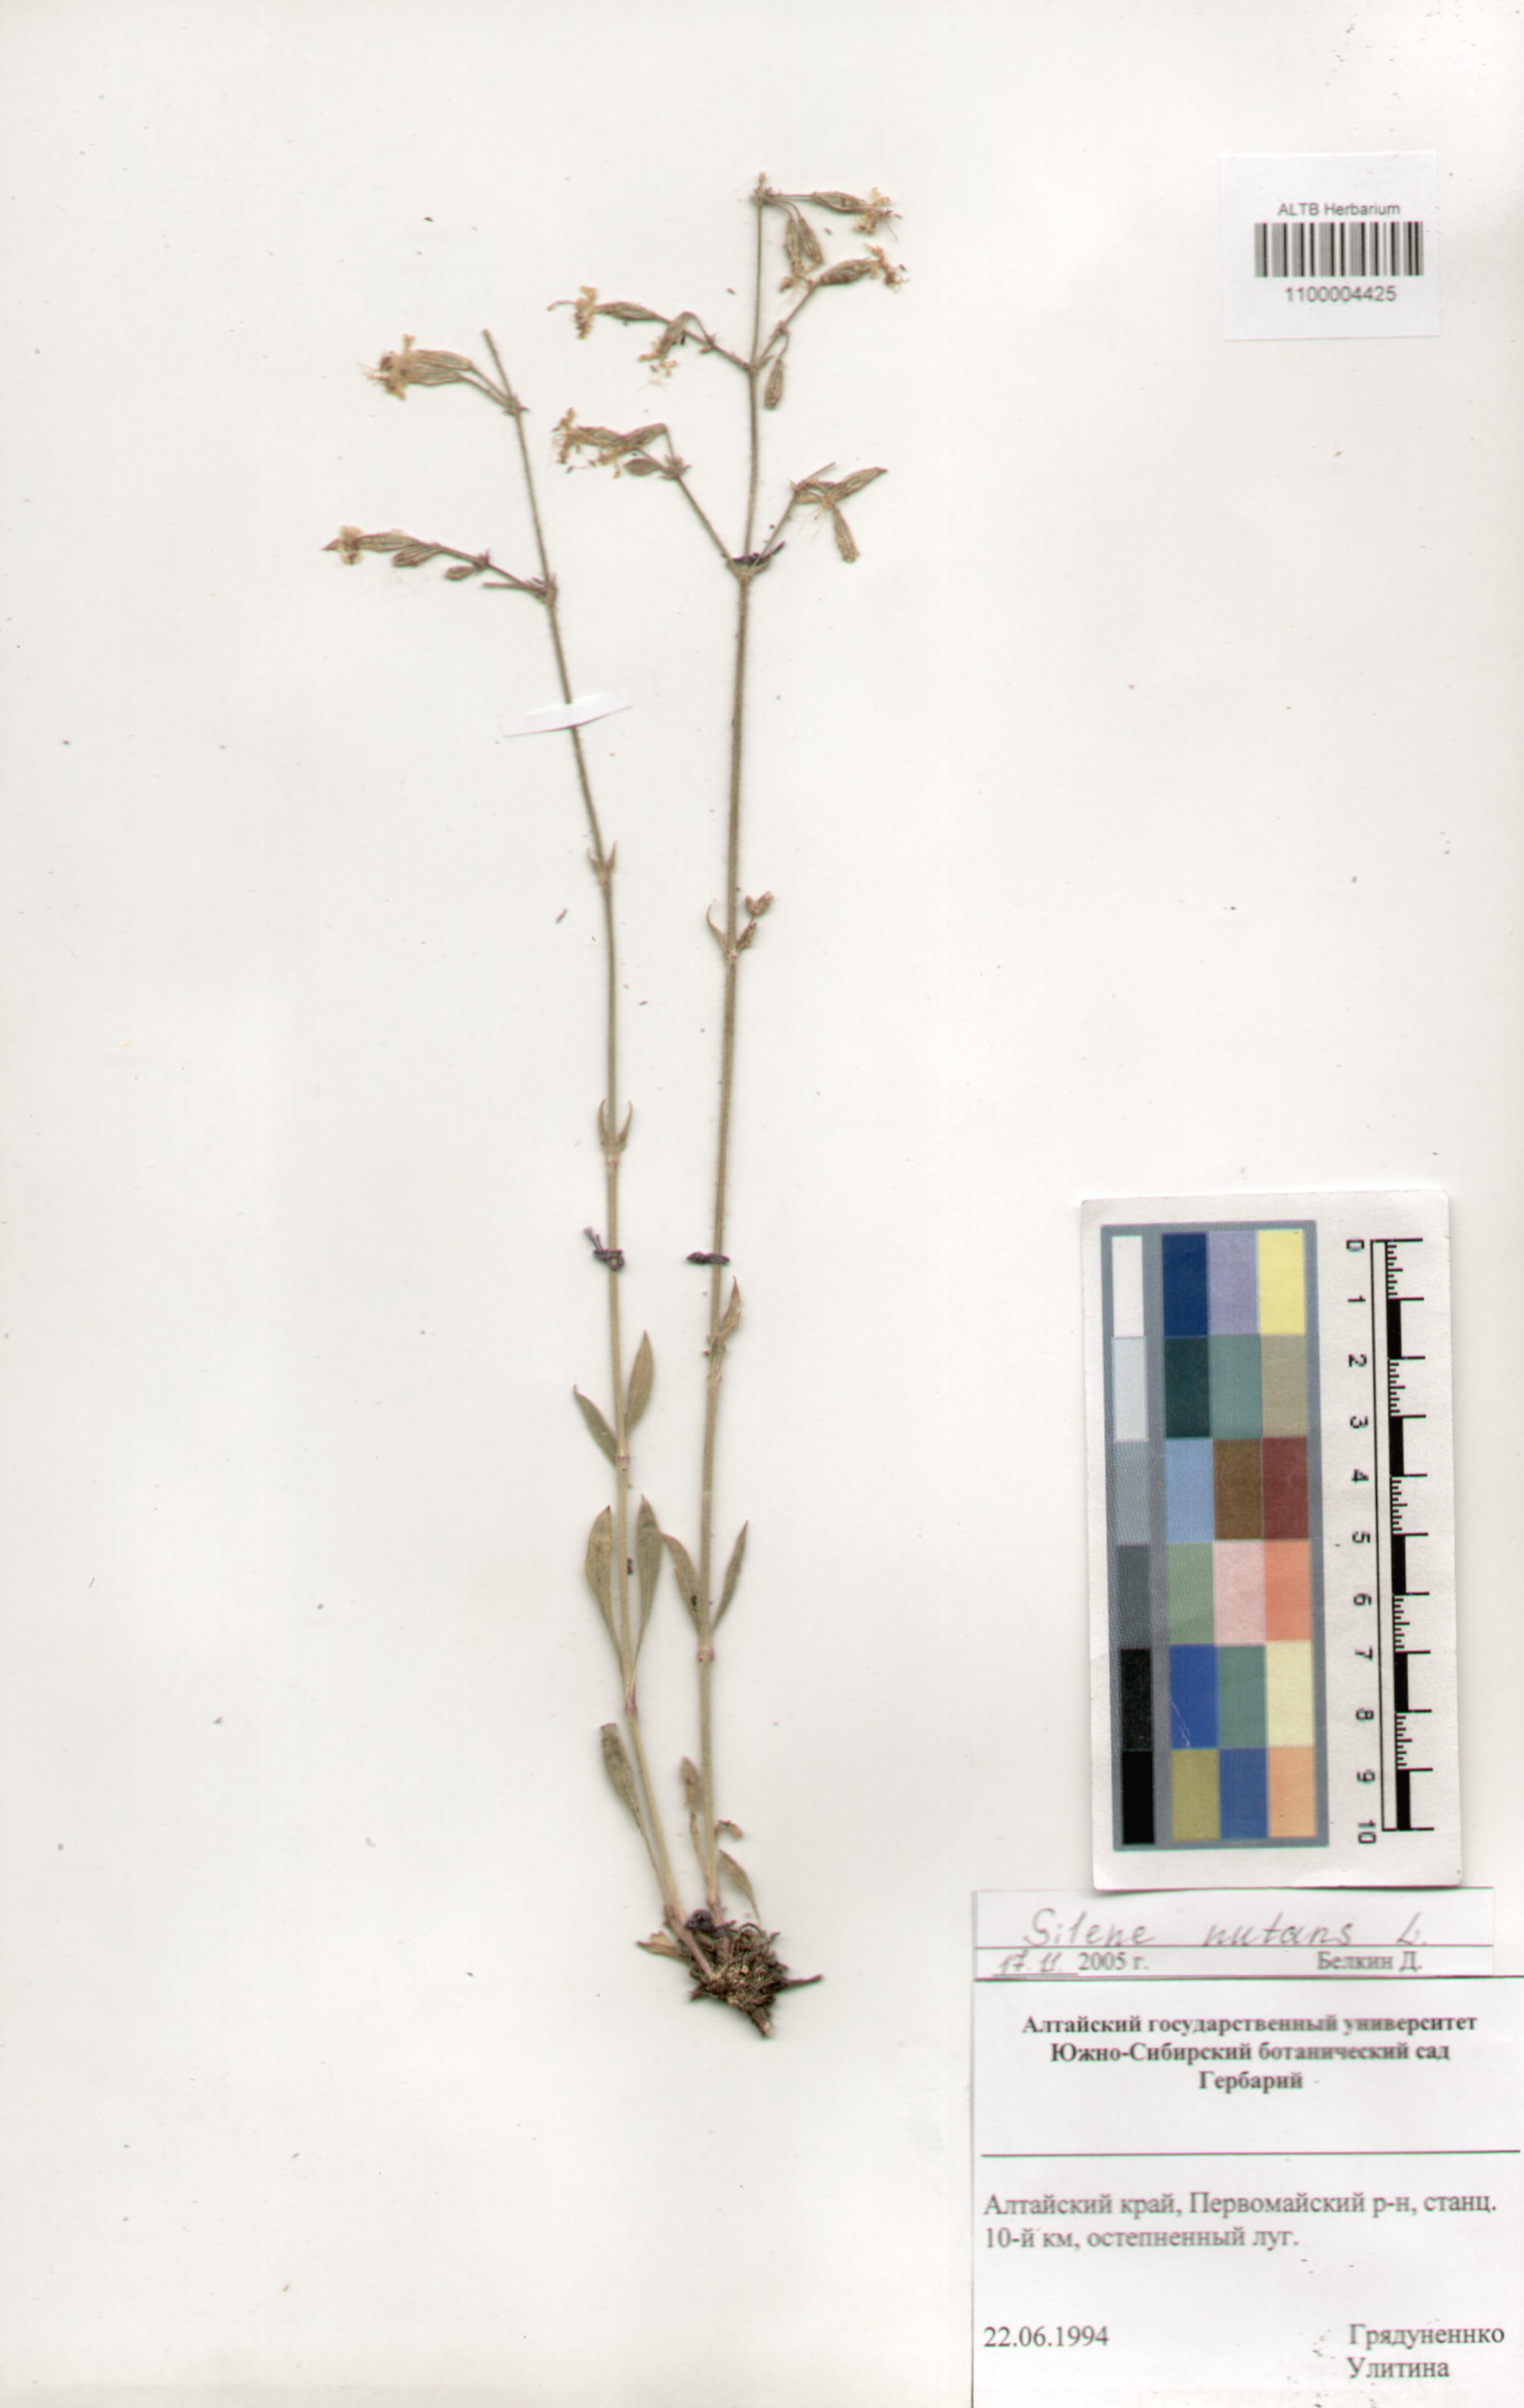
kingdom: Plantae
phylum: Tracheophyta
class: Magnoliopsida
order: Caryophyllales
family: Caryophyllaceae
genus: Silene
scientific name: Silene nutans
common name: Nottingham catchfly
